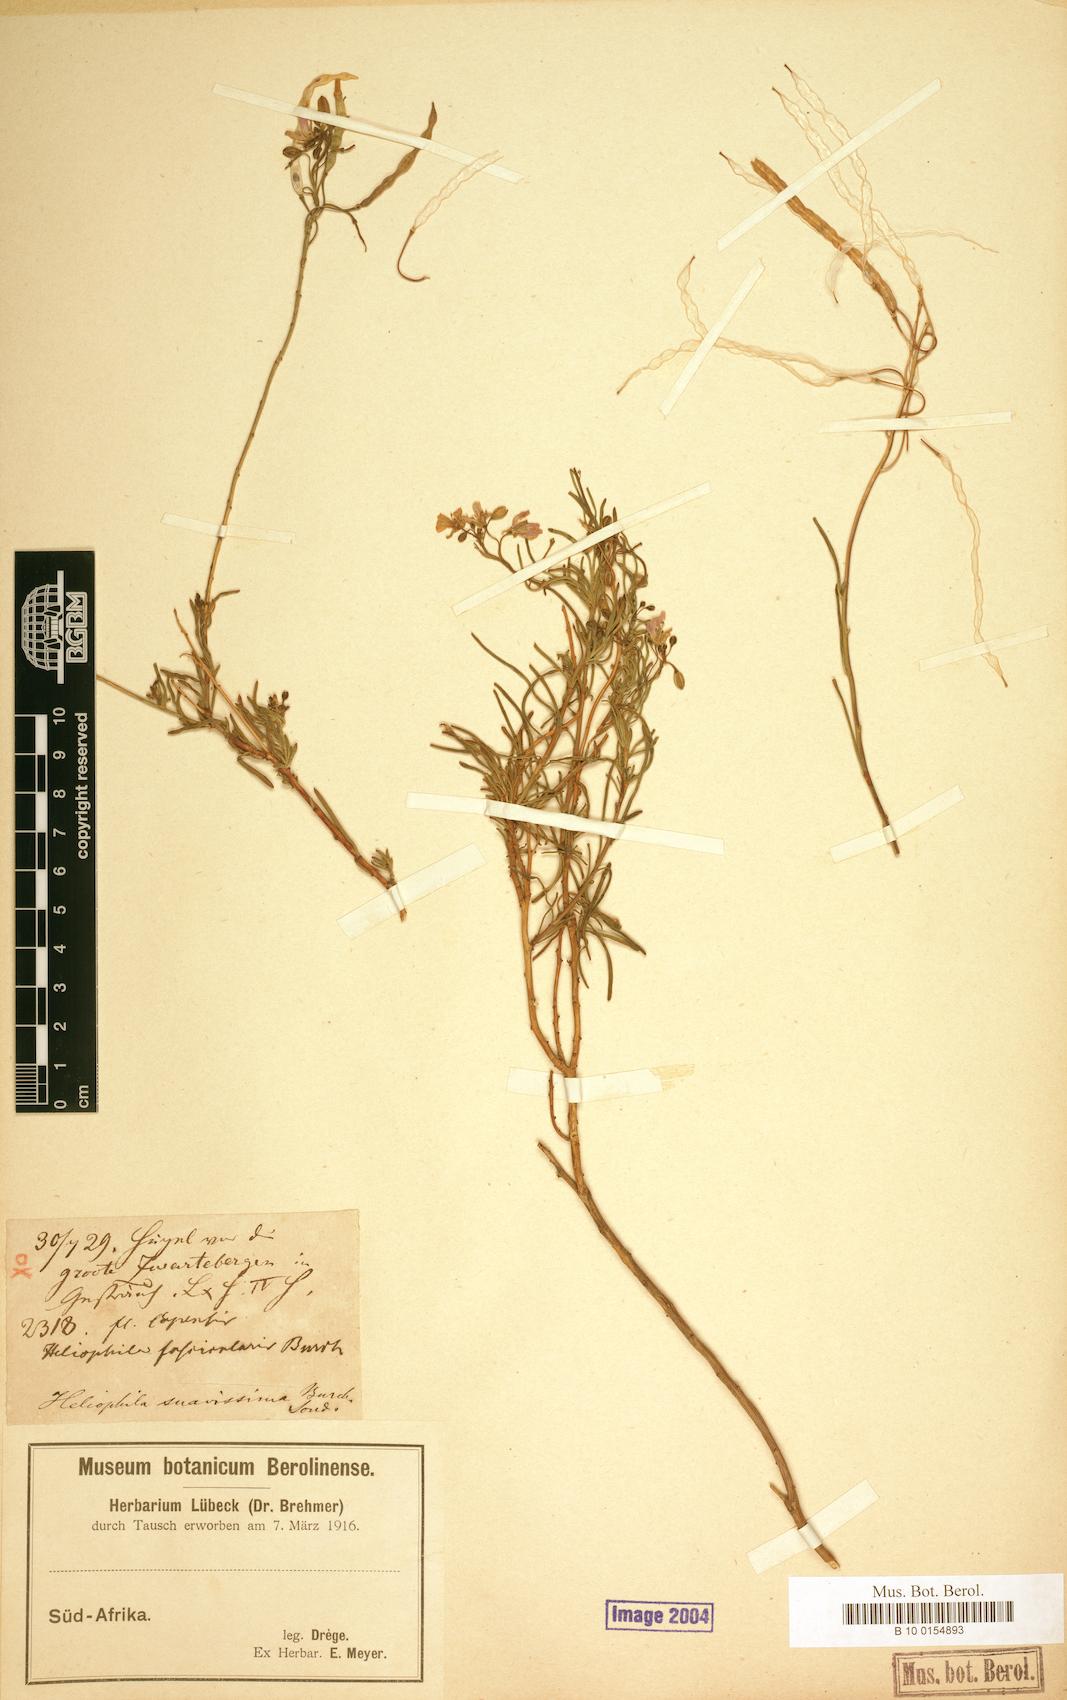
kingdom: Plantae
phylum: Tracheophyta
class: Magnoliopsida
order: Brassicales
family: Brassicaceae
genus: Heliophila
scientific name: Heliophila suavissima
